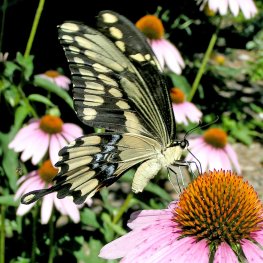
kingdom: Animalia
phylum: Arthropoda
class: Insecta
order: Lepidoptera
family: Papilionidae
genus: Papilio
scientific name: Papilio cresphontes
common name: Eastern Giant Swallowtail
